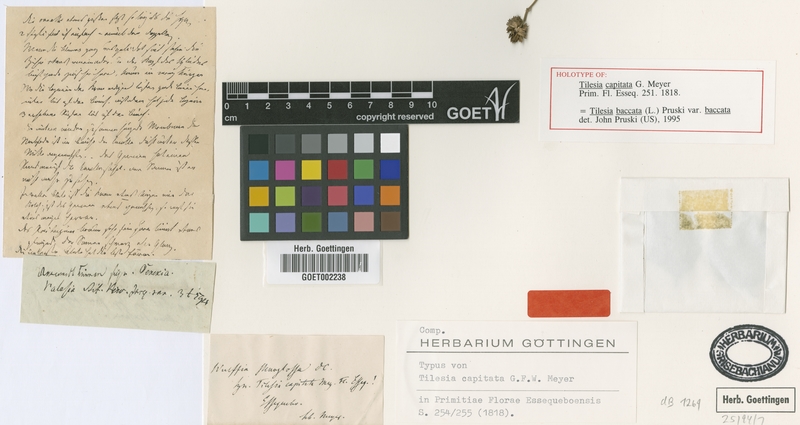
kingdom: Plantae
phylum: Tracheophyta
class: Magnoliopsida
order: Asterales
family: Asteraceae
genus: Tilesia
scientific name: Tilesia baccata
